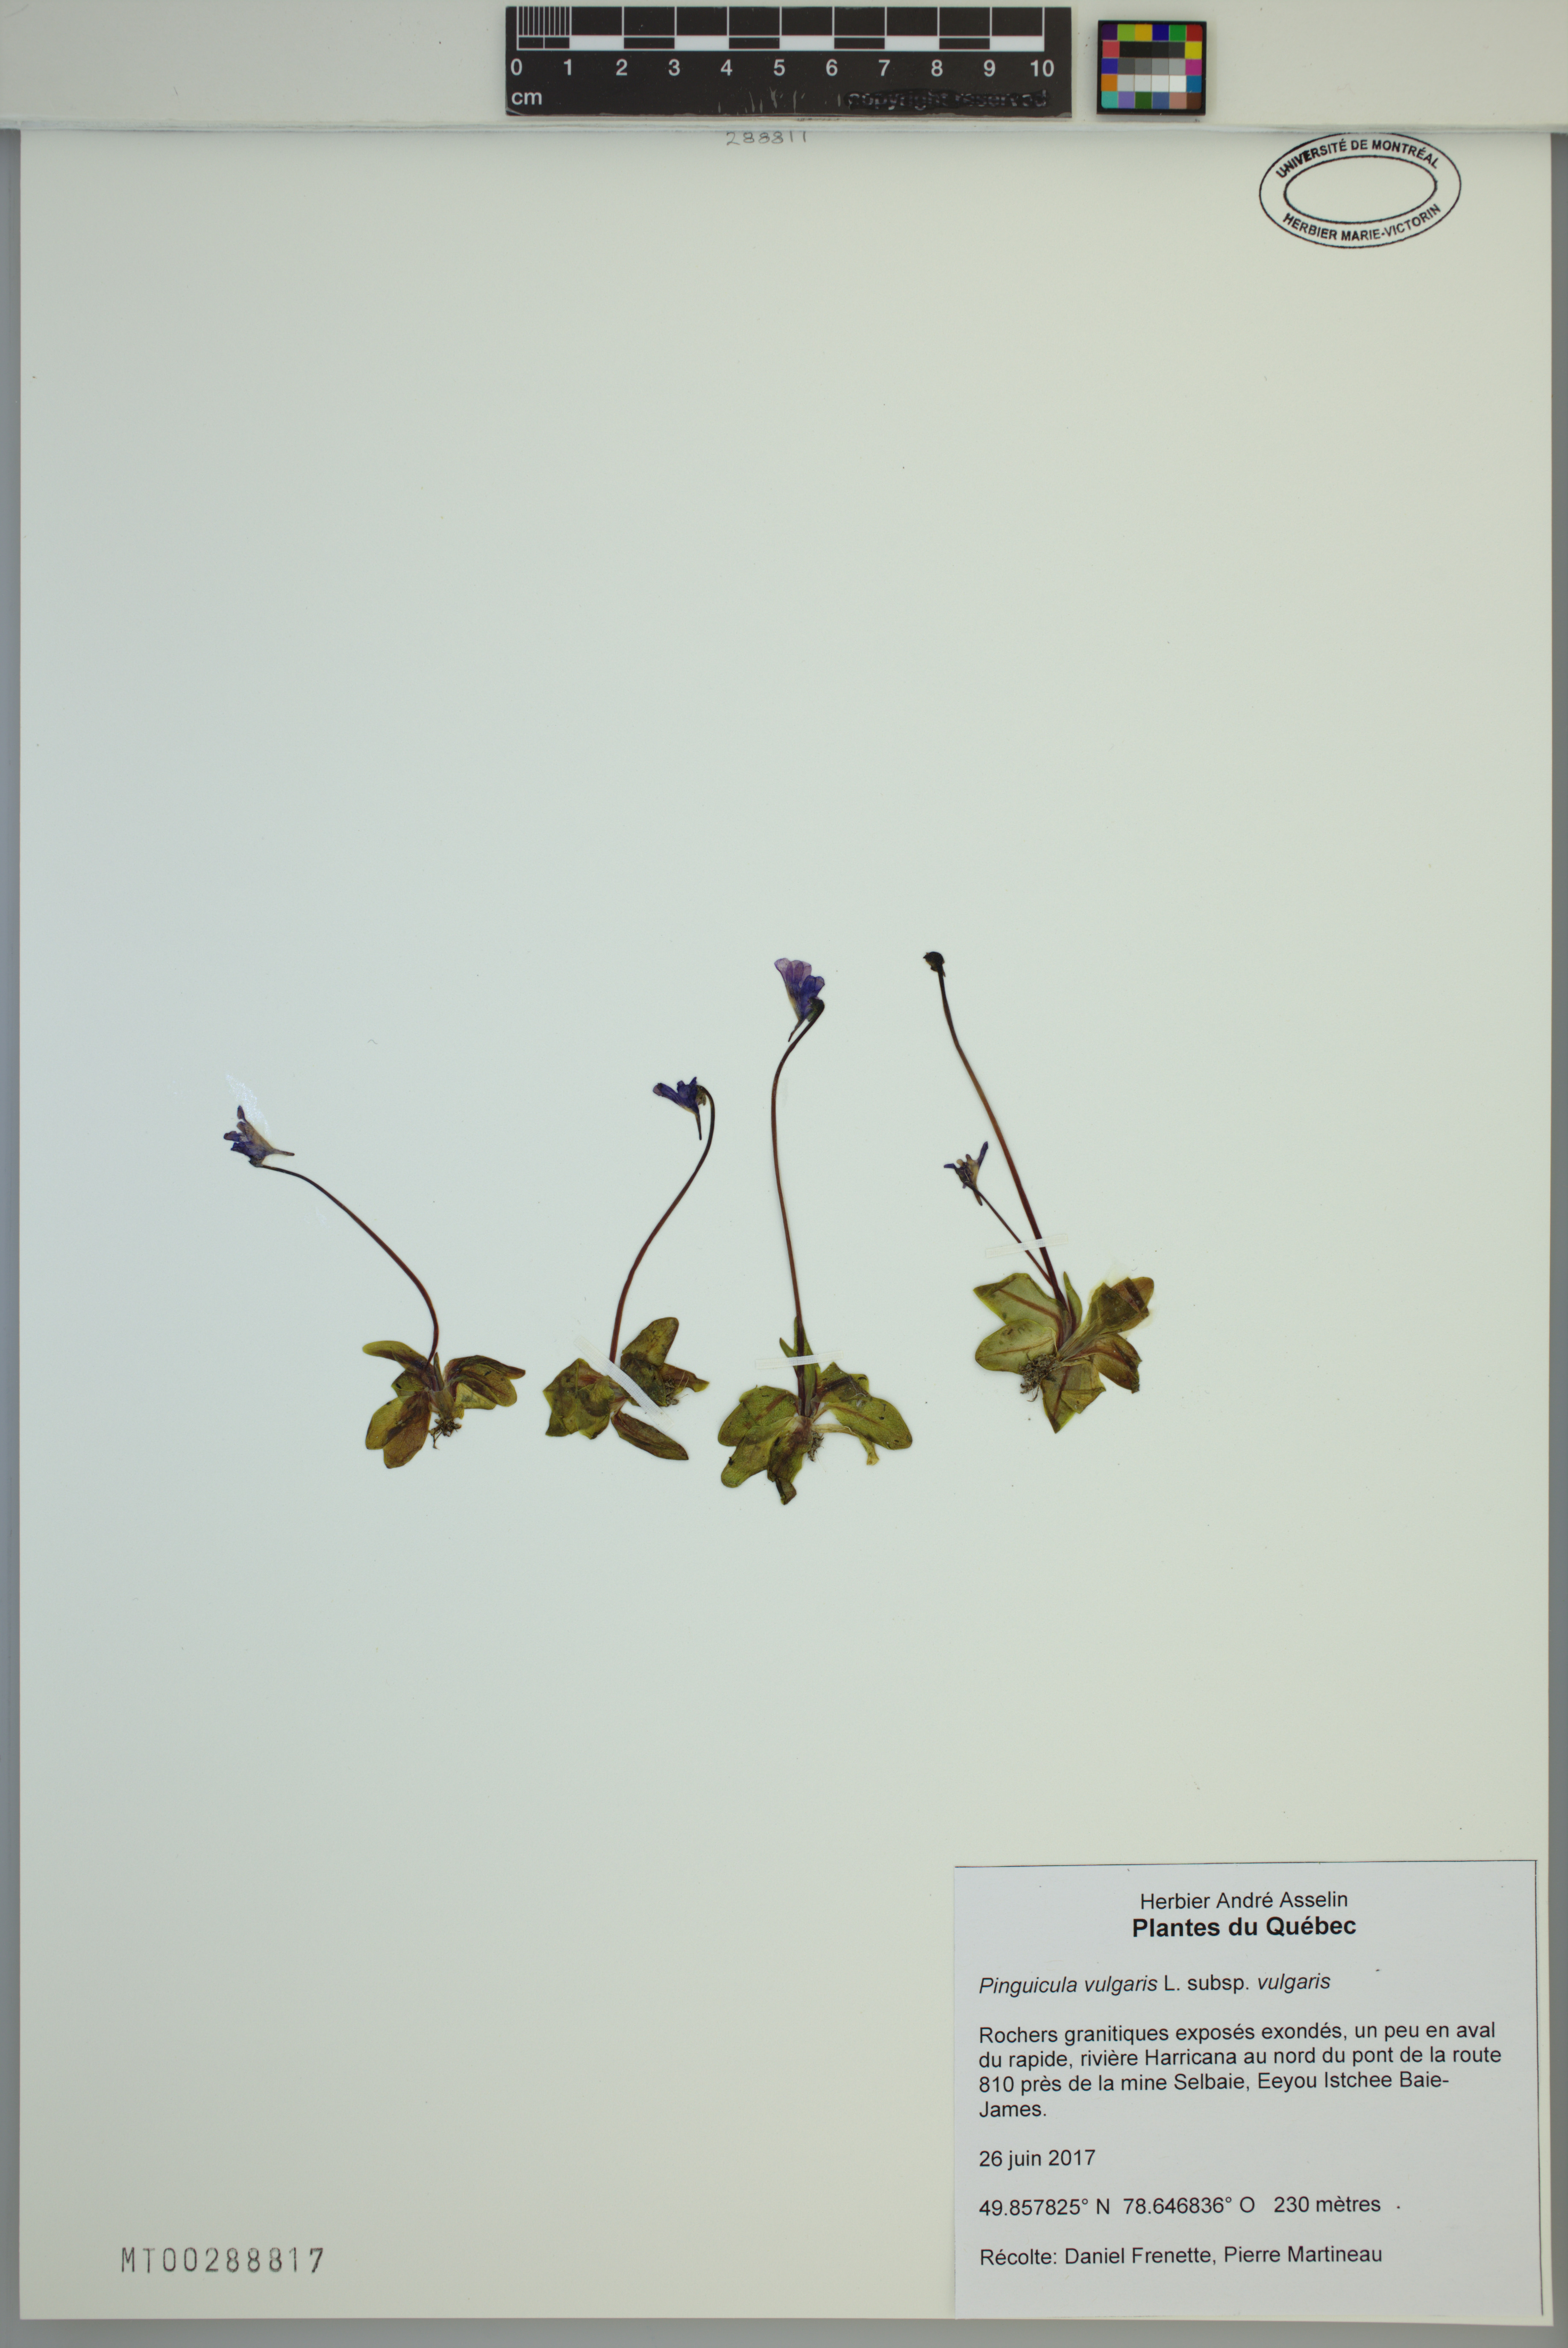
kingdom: Plantae
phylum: Tracheophyta
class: Magnoliopsida
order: Lamiales
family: Lentibulariaceae
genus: Pinguicula
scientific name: Pinguicula vulgaris
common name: Common butterwort
